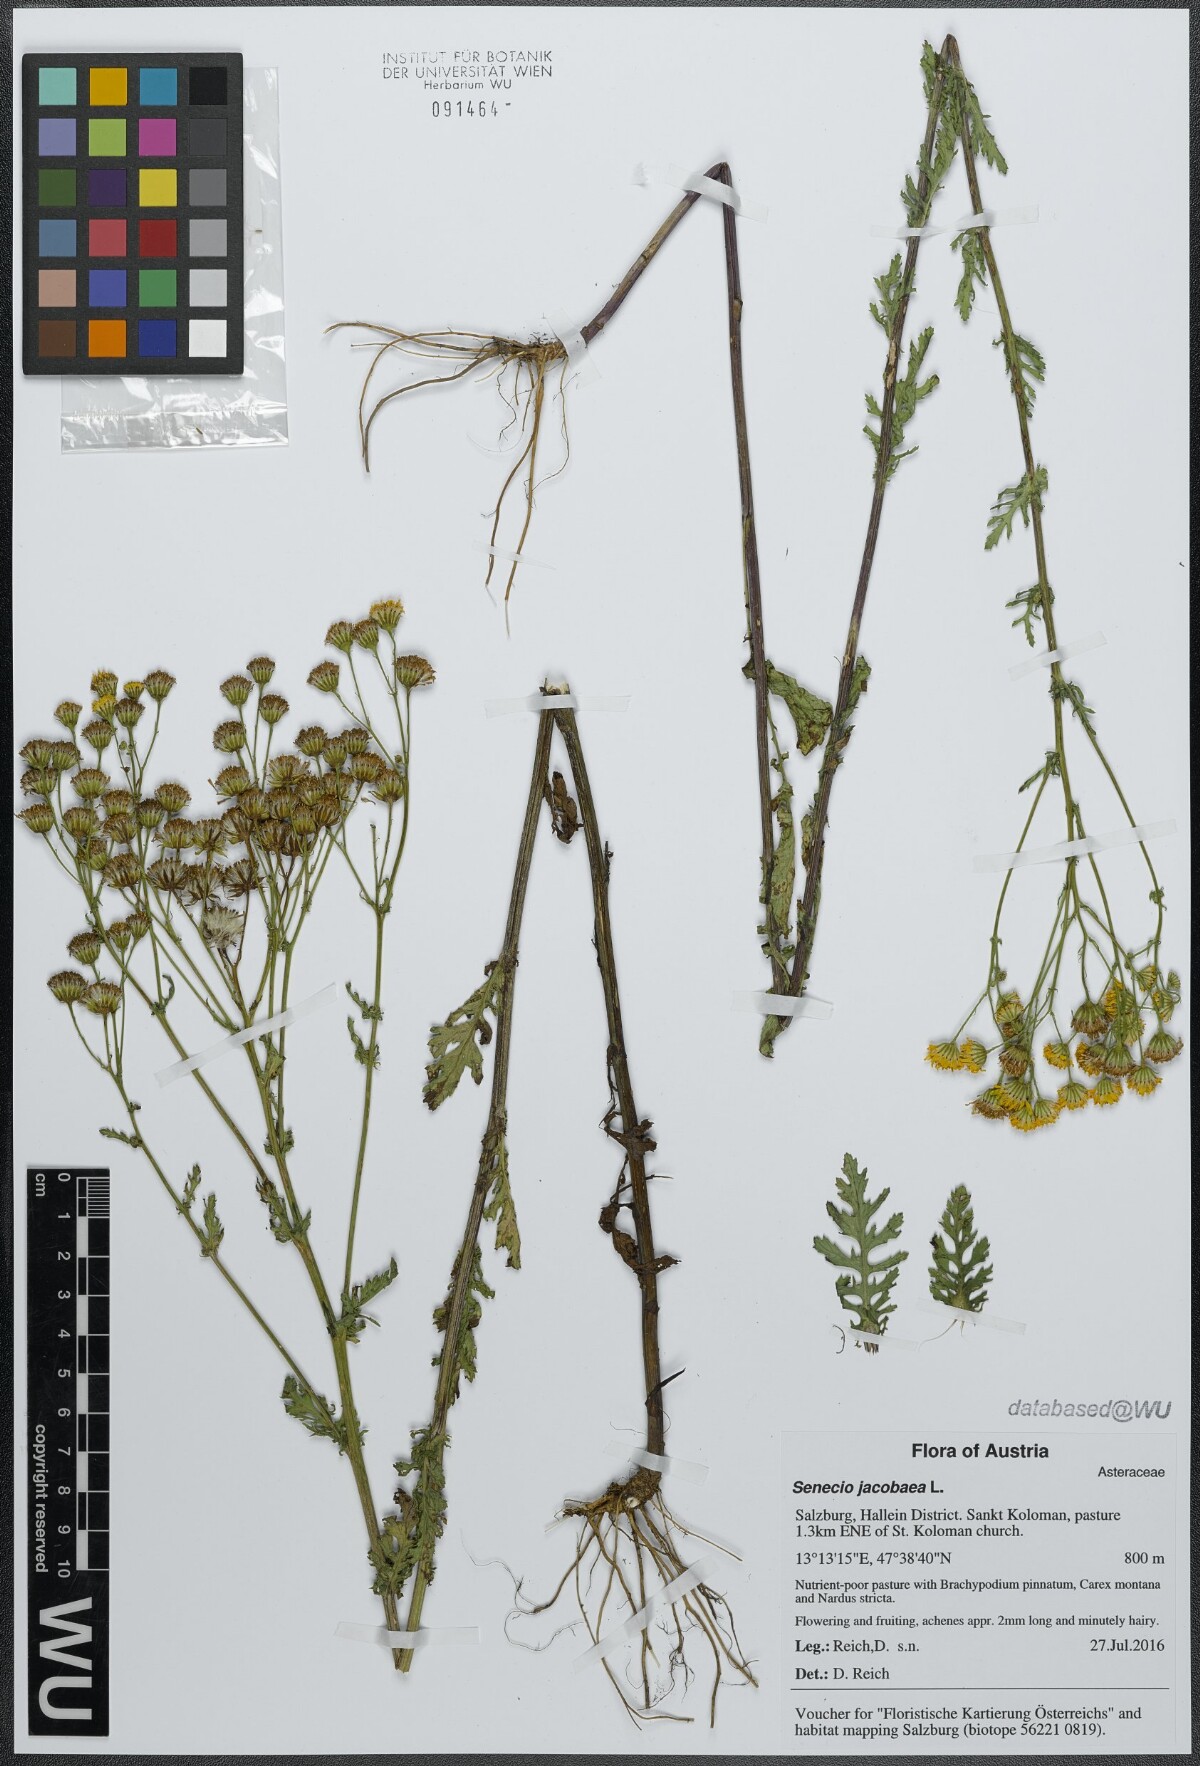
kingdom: Plantae
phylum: Tracheophyta
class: Magnoliopsida
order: Asterales
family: Asteraceae
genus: Jacobaea
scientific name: Jacobaea vulgaris
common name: Stinking willie
